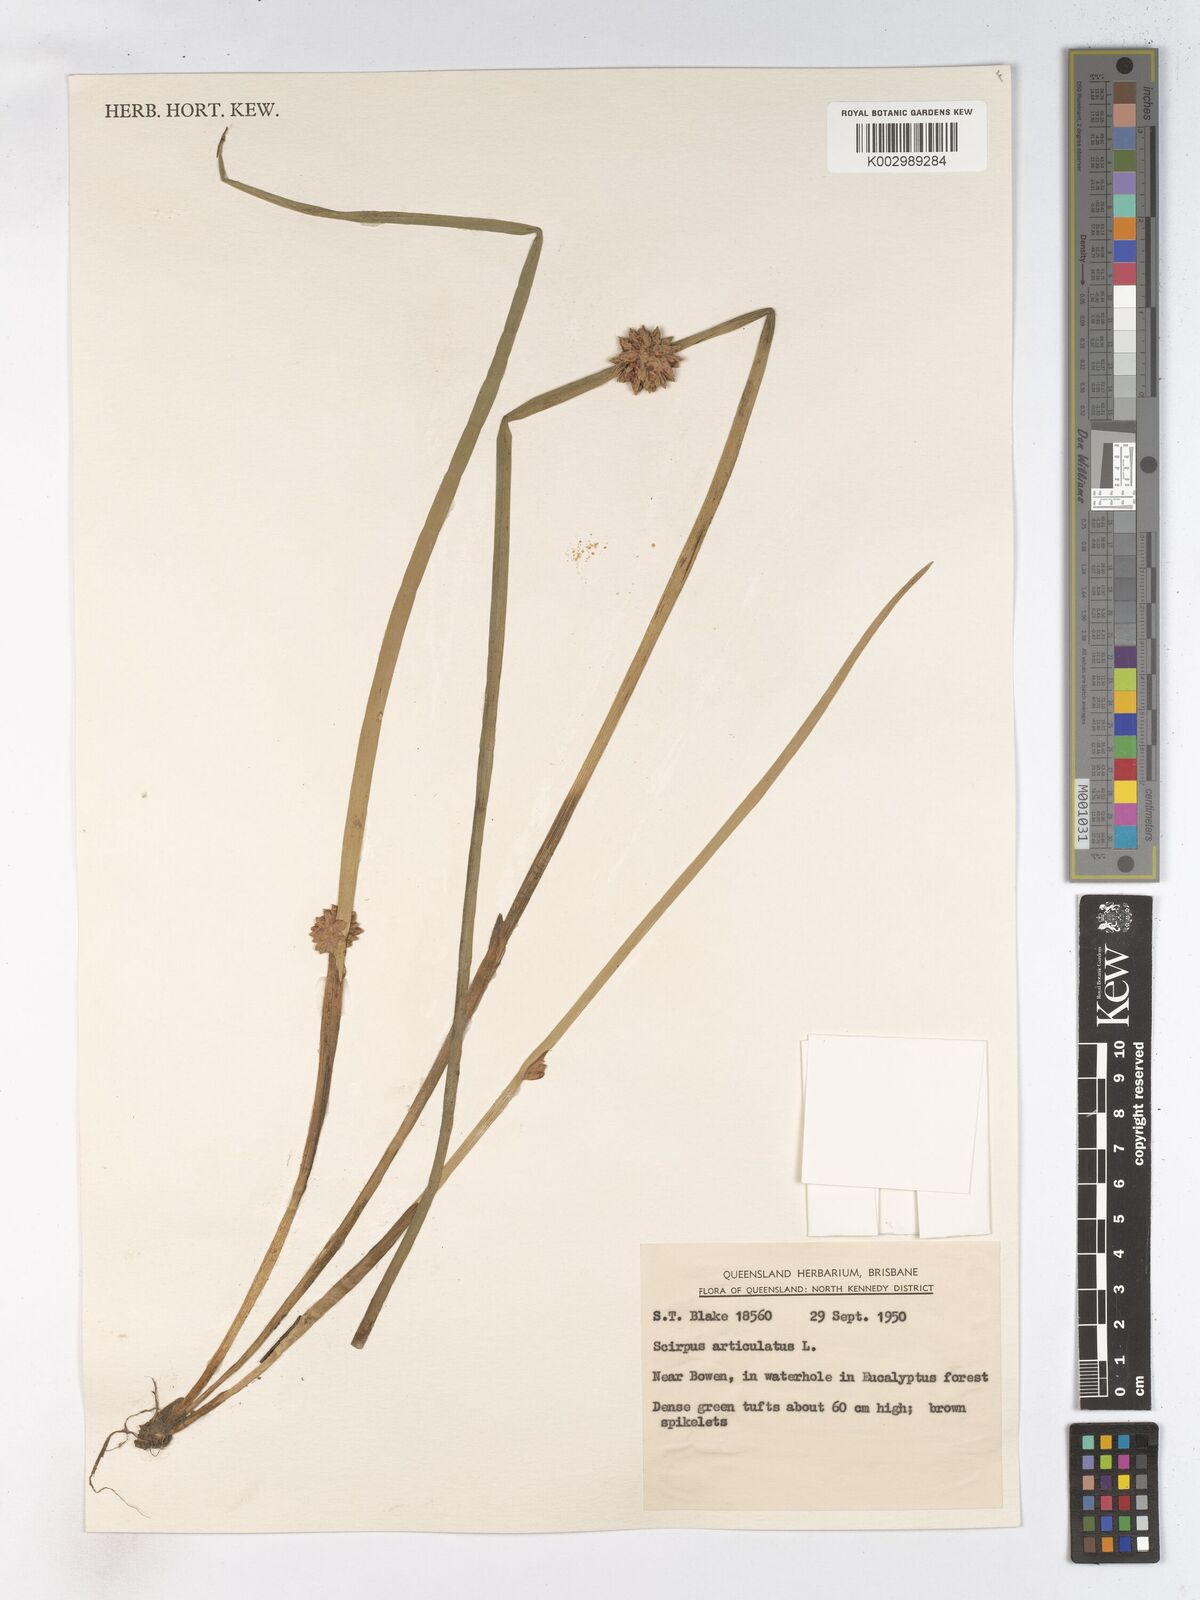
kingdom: Plantae
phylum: Tracheophyta
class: Liliopsida
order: Poales
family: Cyperaceae
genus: Schoenoplectiella
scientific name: Schoenoplectiella articulata
